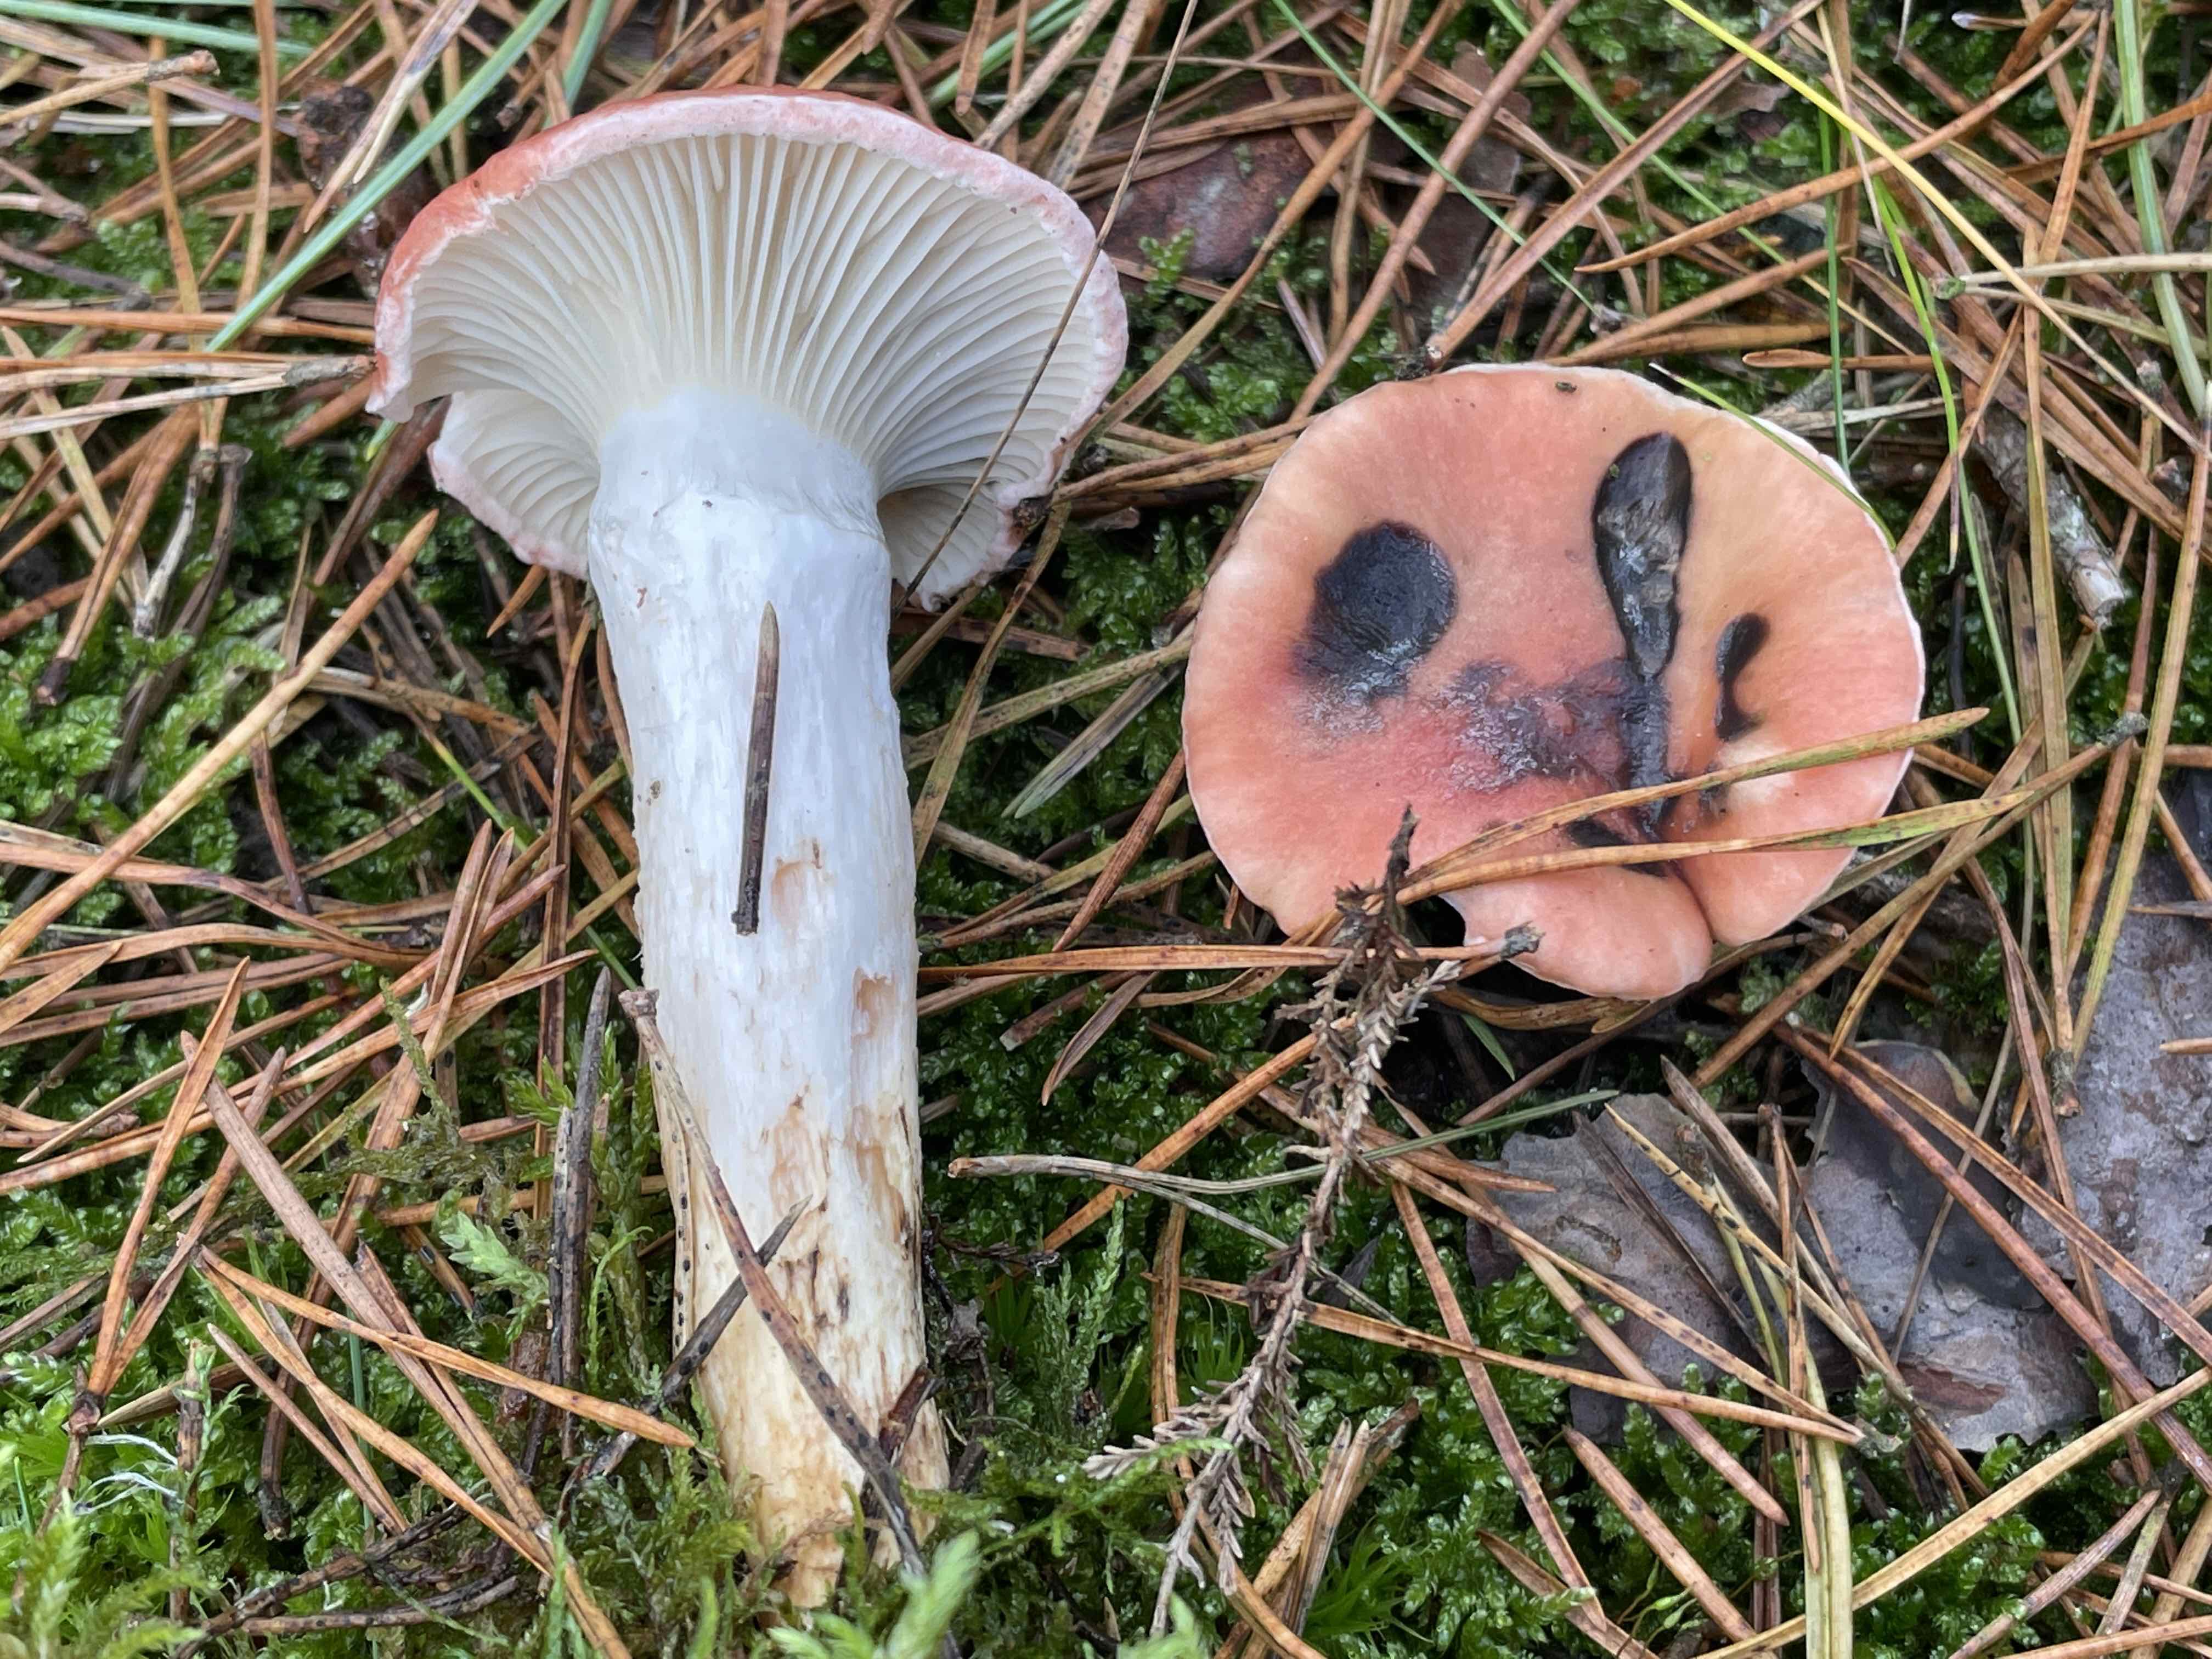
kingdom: Fungi
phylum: Basidiomycota
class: Agaricomycetes
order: Boletales
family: Gomphidiaceae
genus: Gomphidius
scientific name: Gomphidius roseus
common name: rosenrød slimslør
